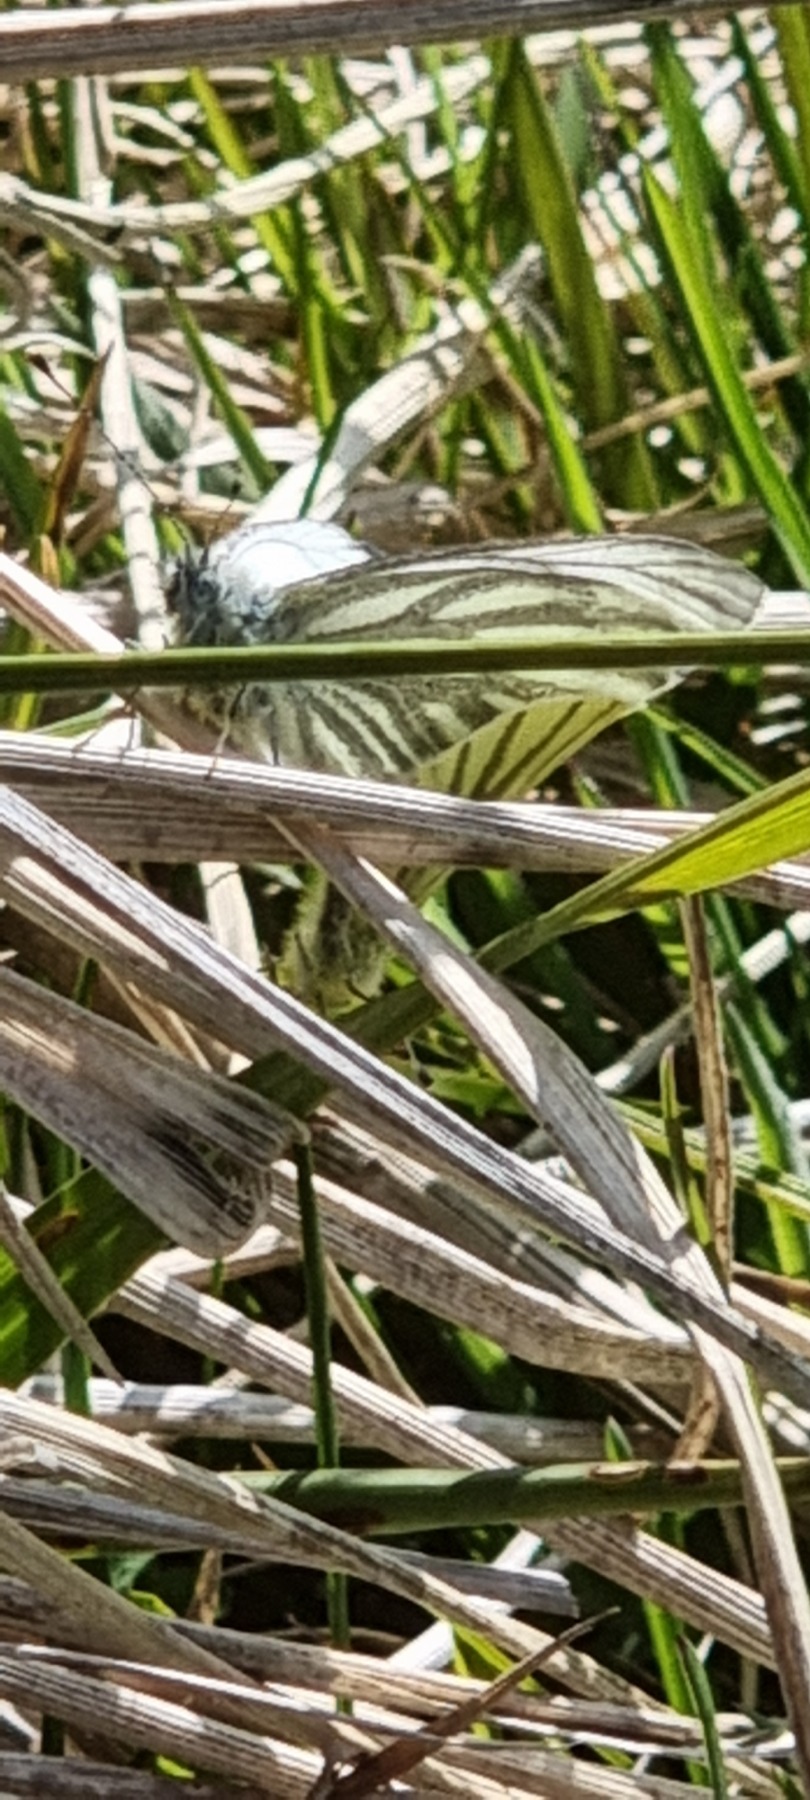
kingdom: Animalia
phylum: Arthropoda
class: Insecta
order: Lepidoptera
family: Pieridae
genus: Pieris
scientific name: Pieris napi
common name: Grønåret kålsommerfugl
